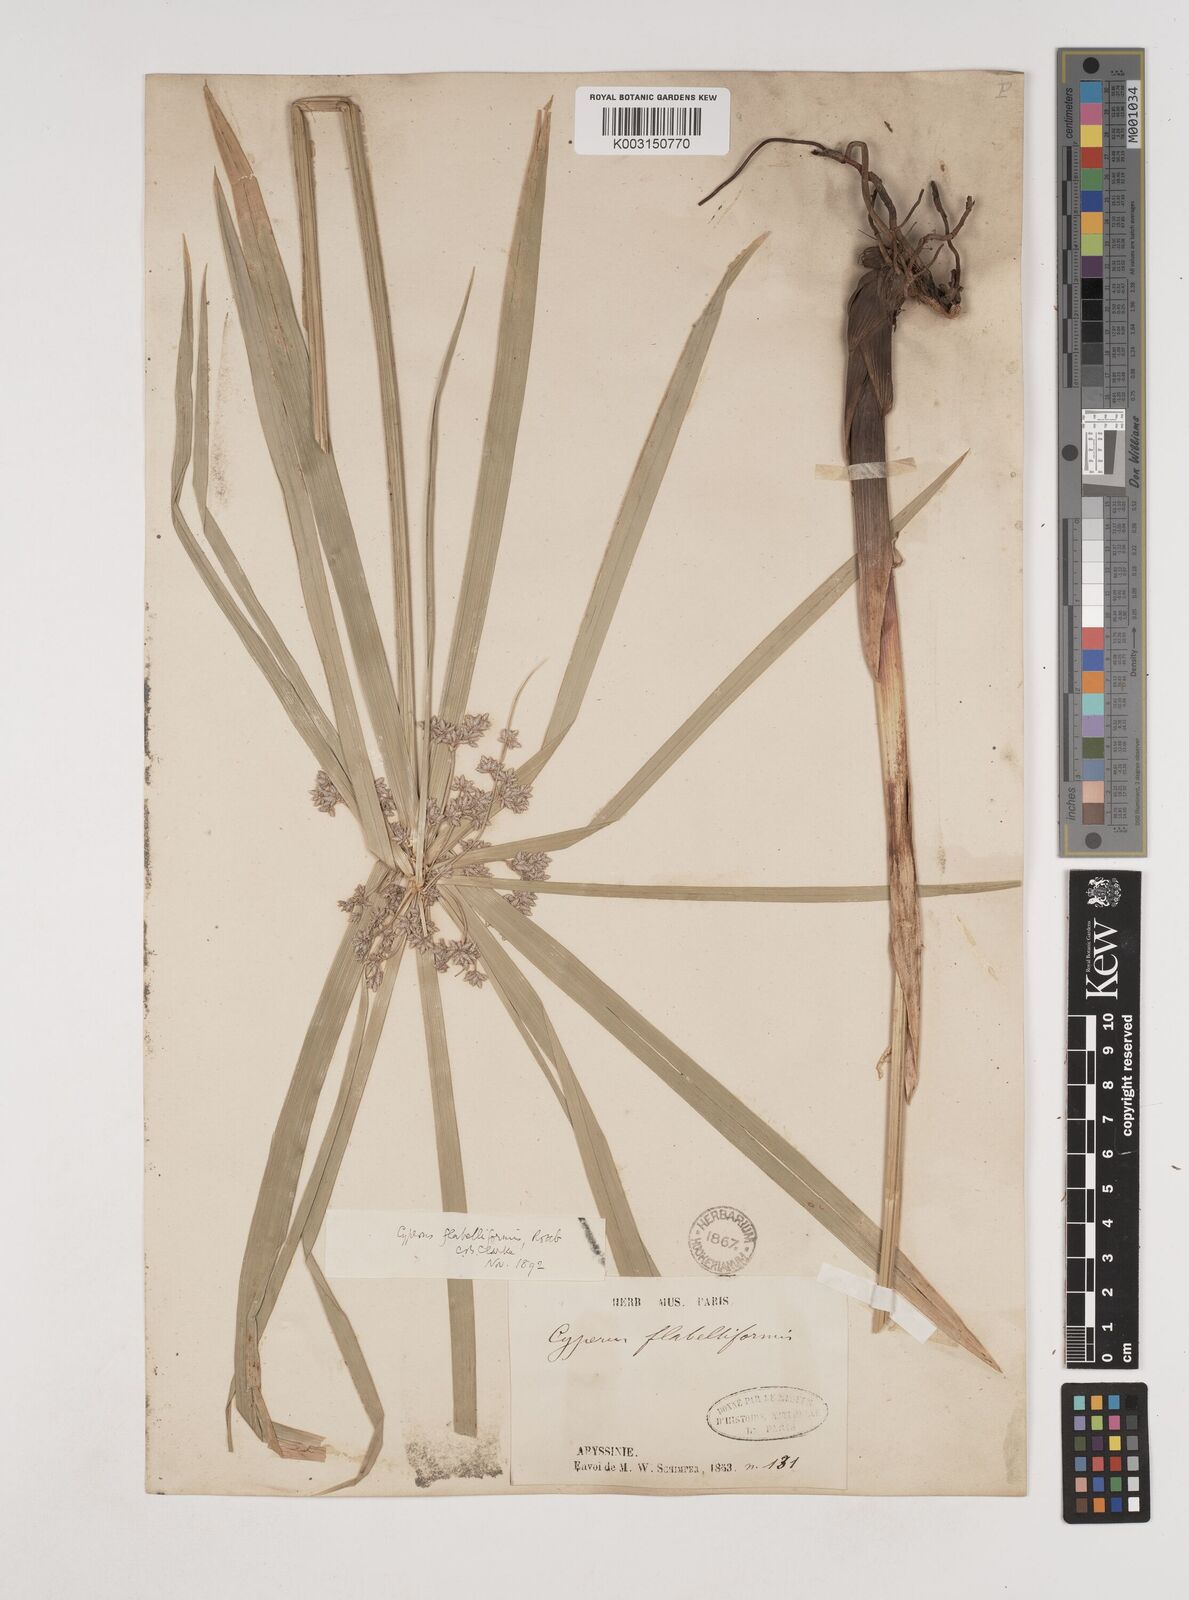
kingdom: Plantae
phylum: Tracheophyta
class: Liliopsida
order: Poales
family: Cyperaceae
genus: Cyperus
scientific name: Cyperus alternifolius
